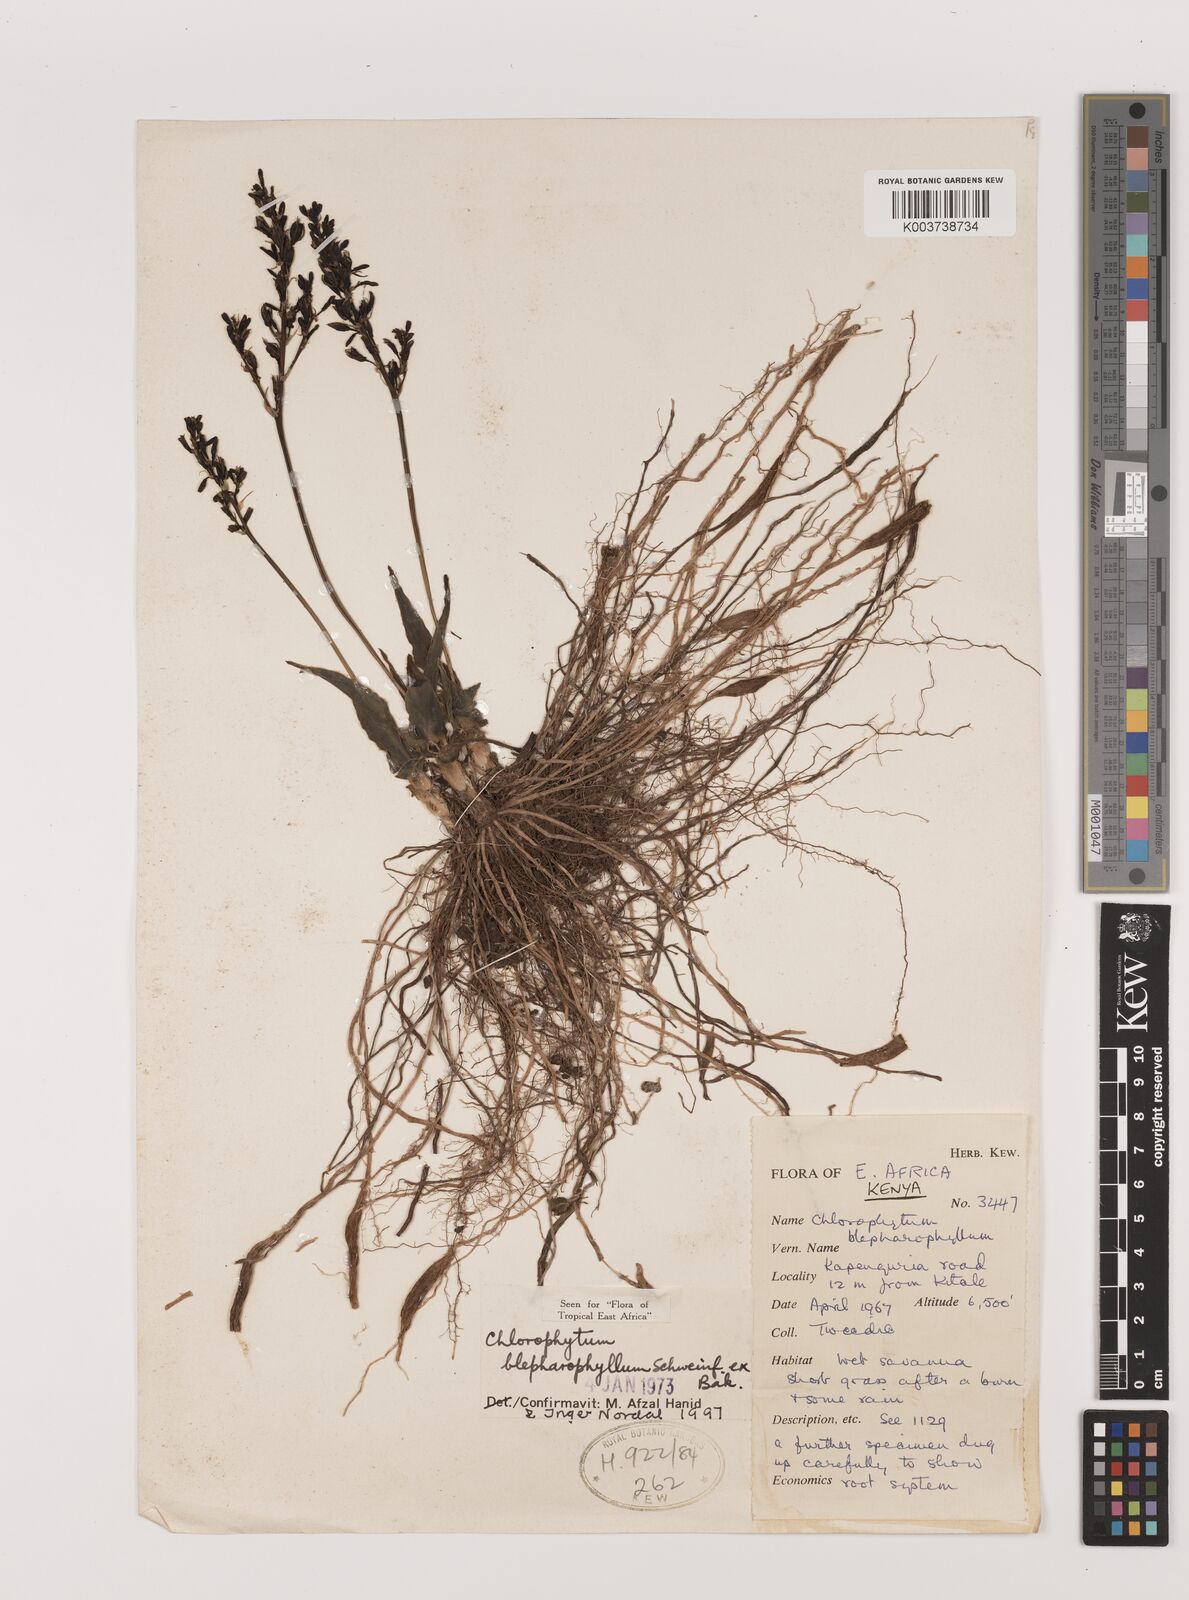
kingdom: Plantae
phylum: Tracheophyta
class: Liliopsida
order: Asparagales
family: Asparagaceae
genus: Chlorophytum
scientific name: Chlorophytum blepharophyllum
